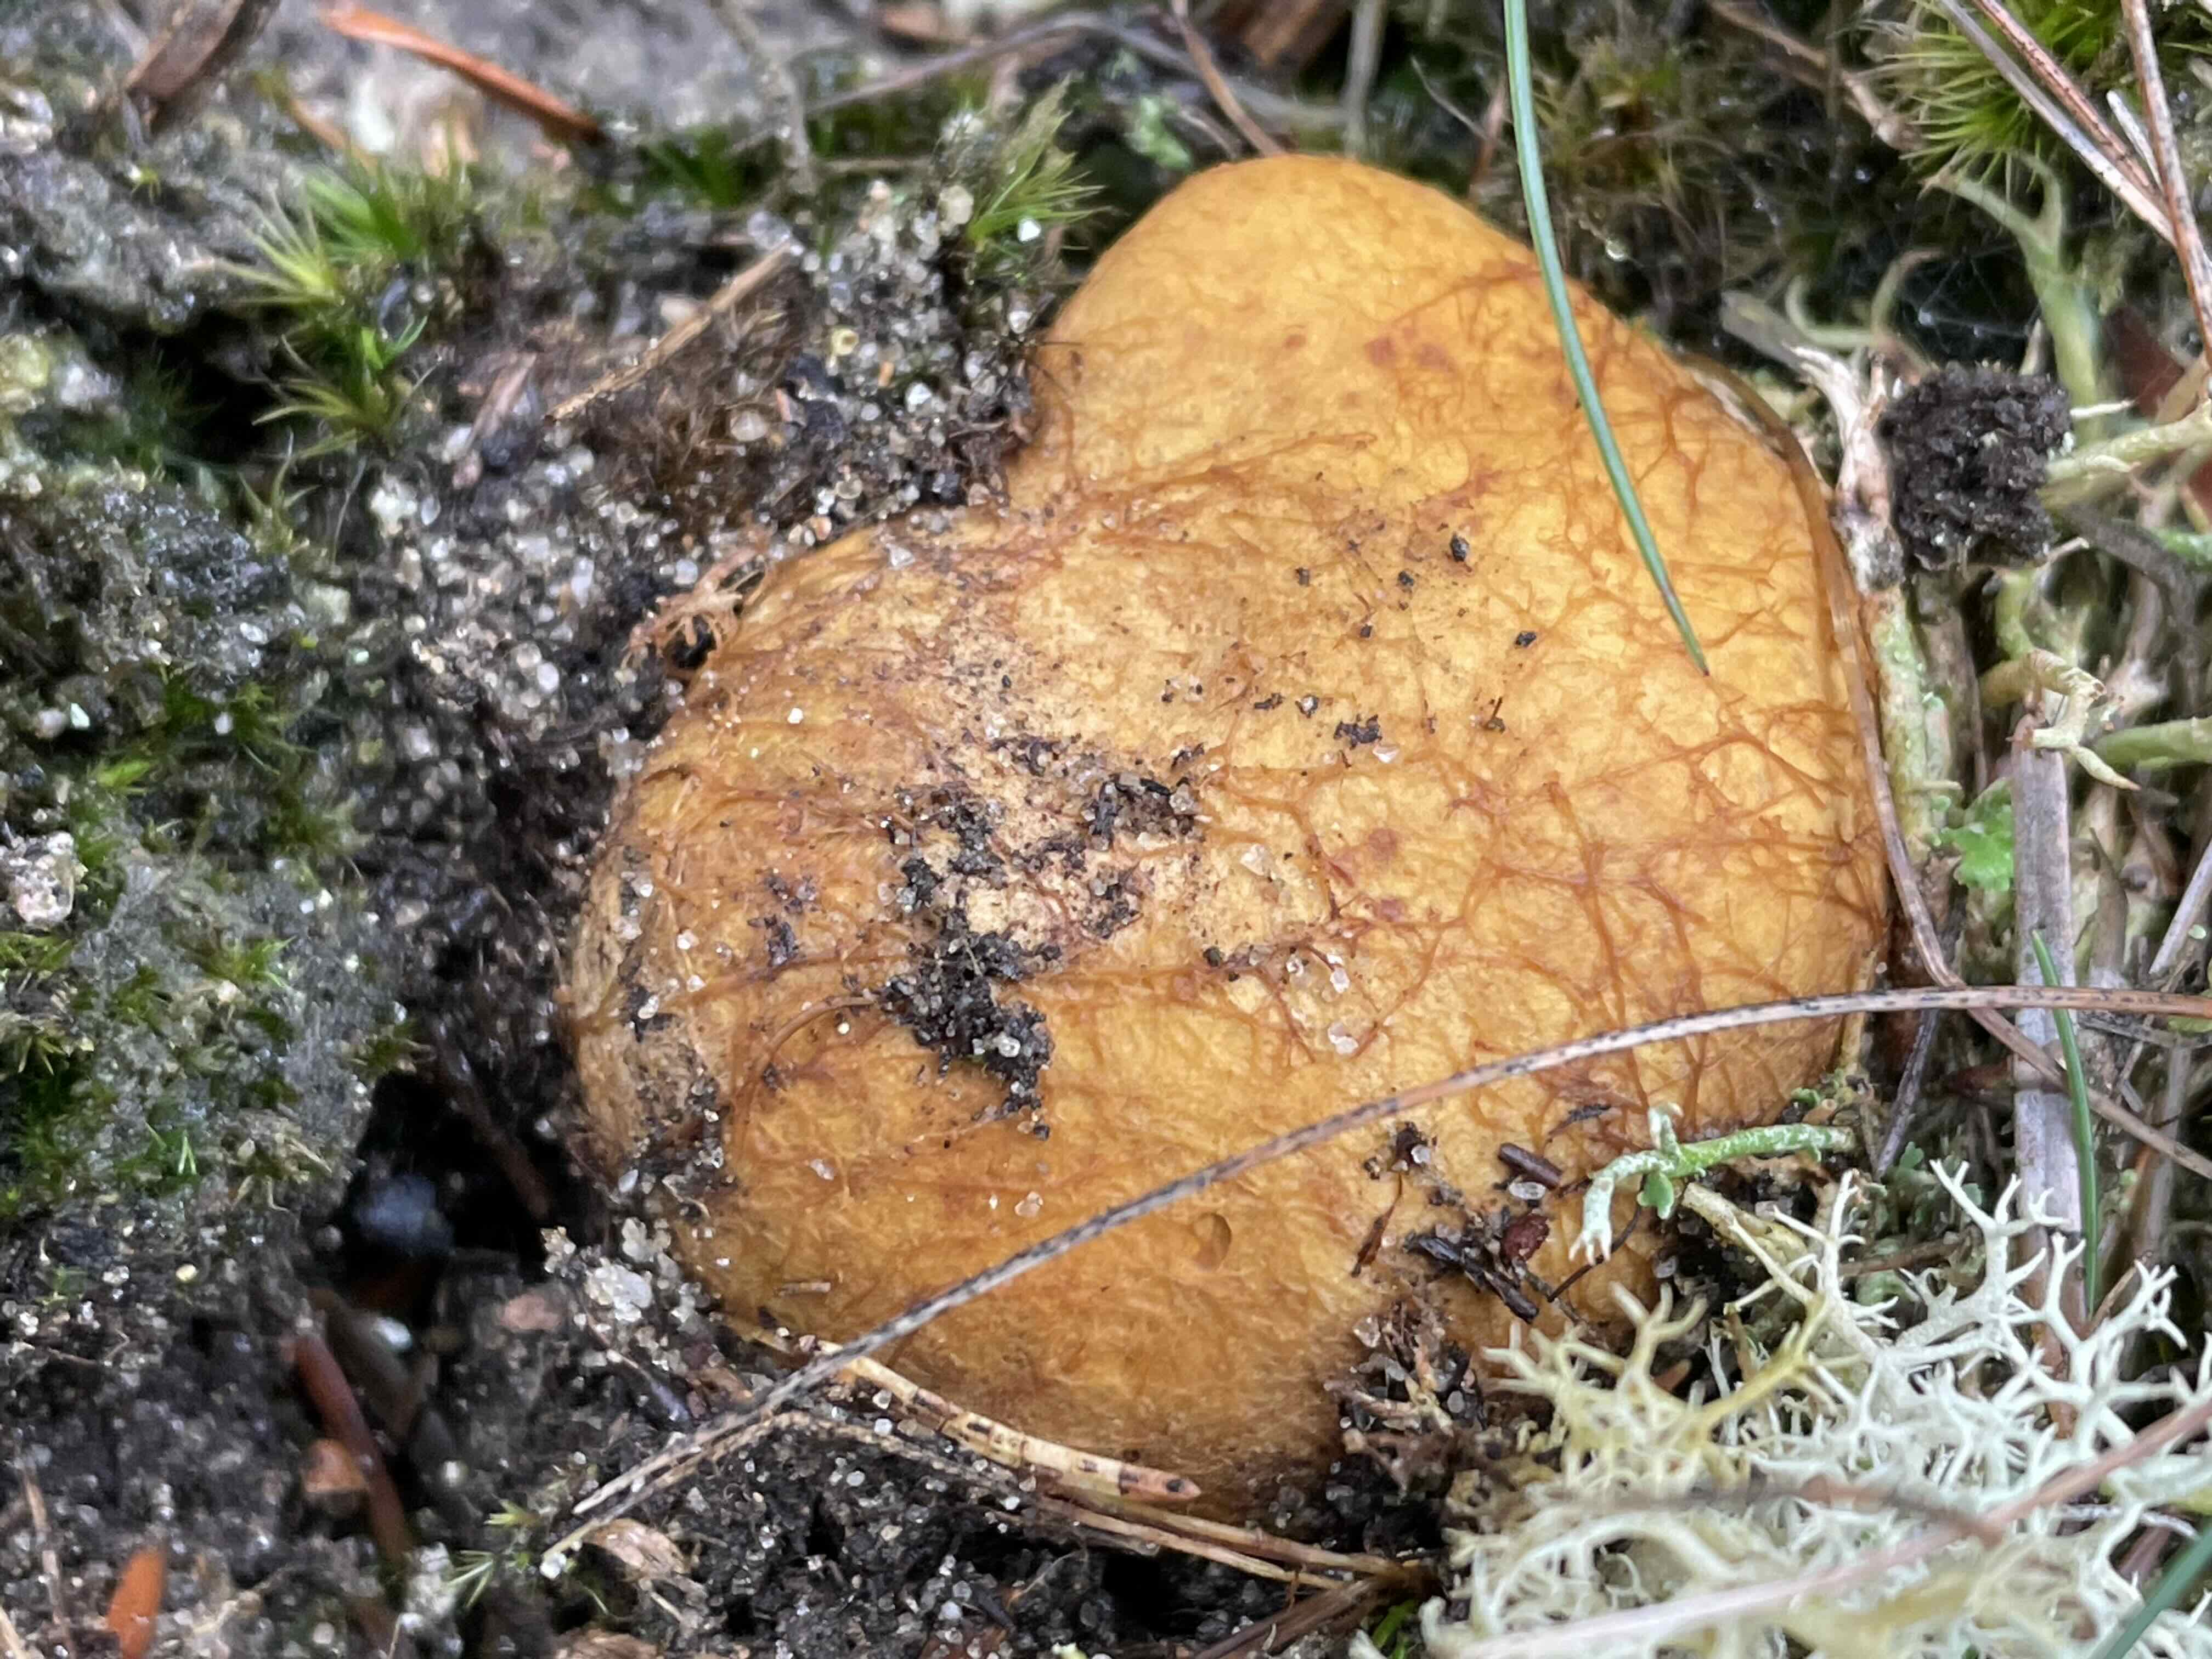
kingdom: Fungi
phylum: Basidiomycota
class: Agaricomycetes
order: Boletales
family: Rhizopogonaceae
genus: Rhizopogon
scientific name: Rhizopogon obtextus
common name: gul skægtrøffel
